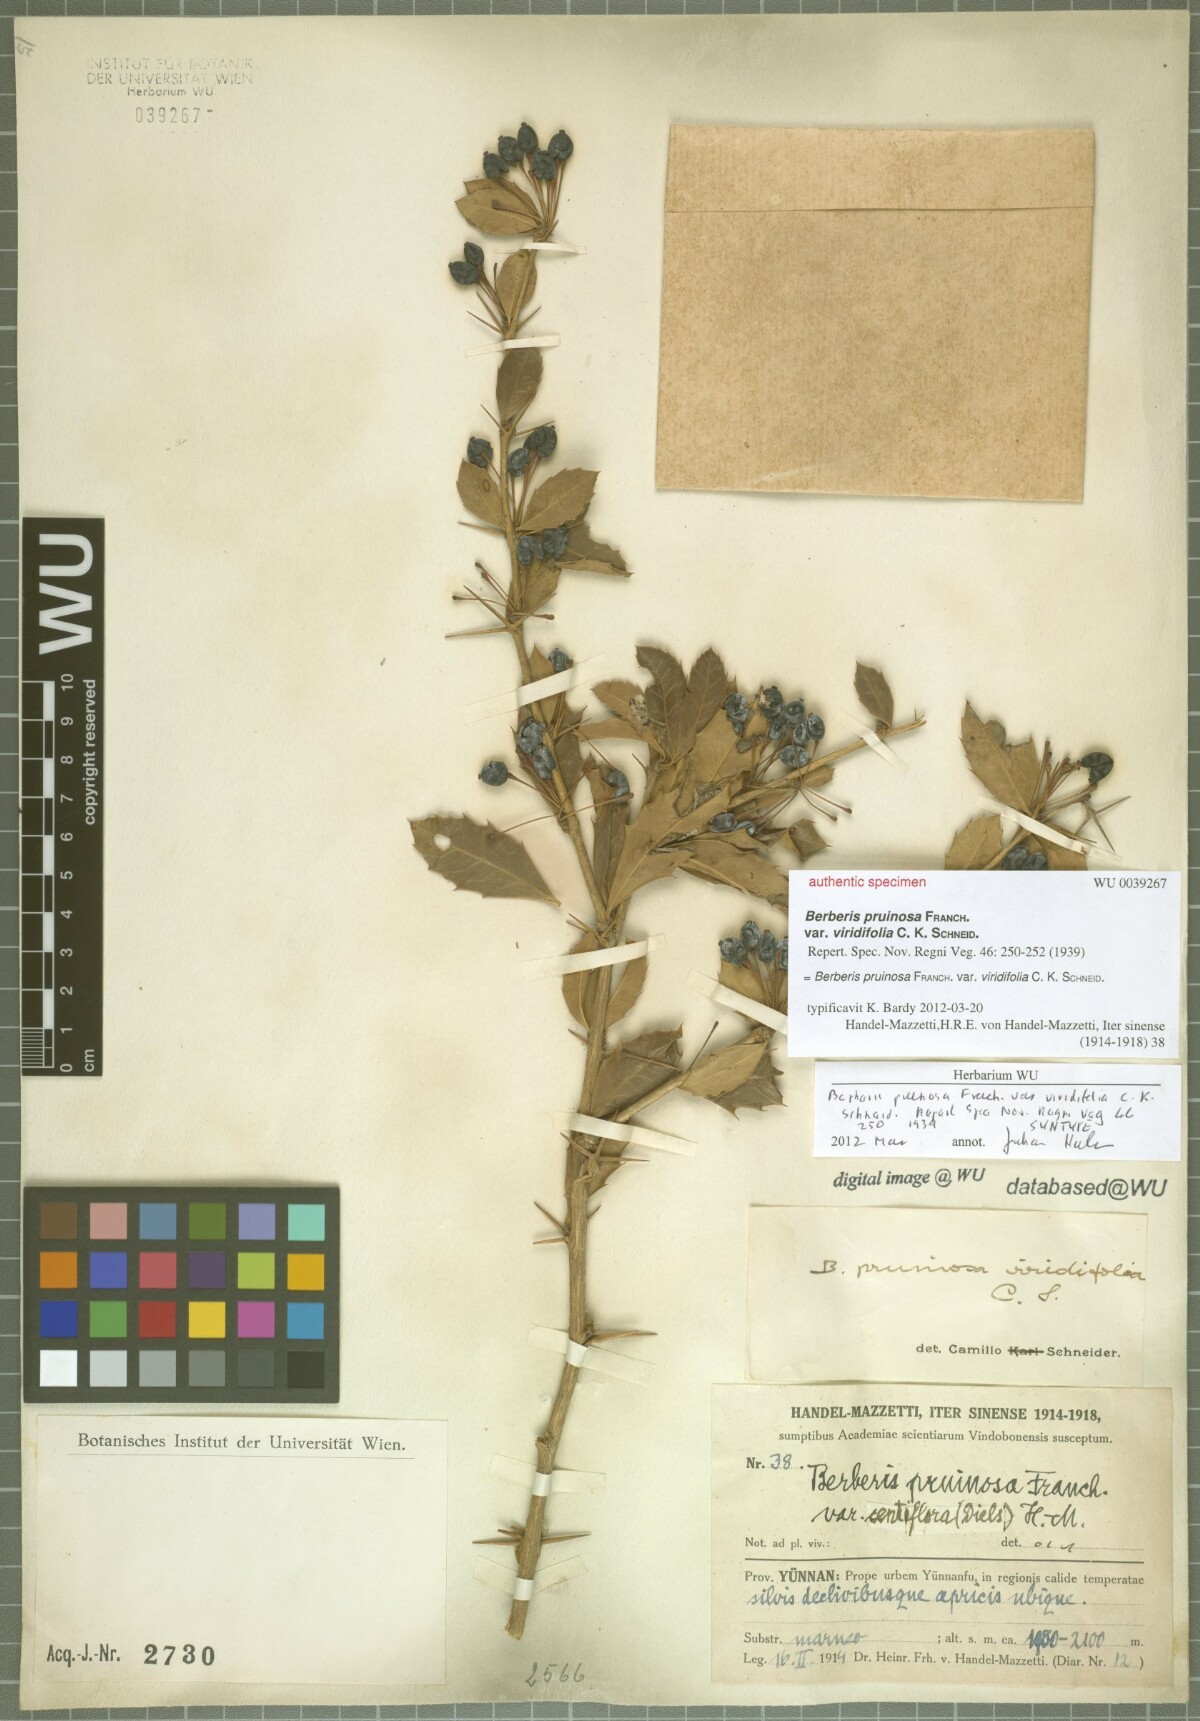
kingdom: Plantae
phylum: Tracheophyta
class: Magnoliopsida
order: Ranunculales
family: Berberidaceae
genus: Berberis
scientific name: Berberis pruinosa
